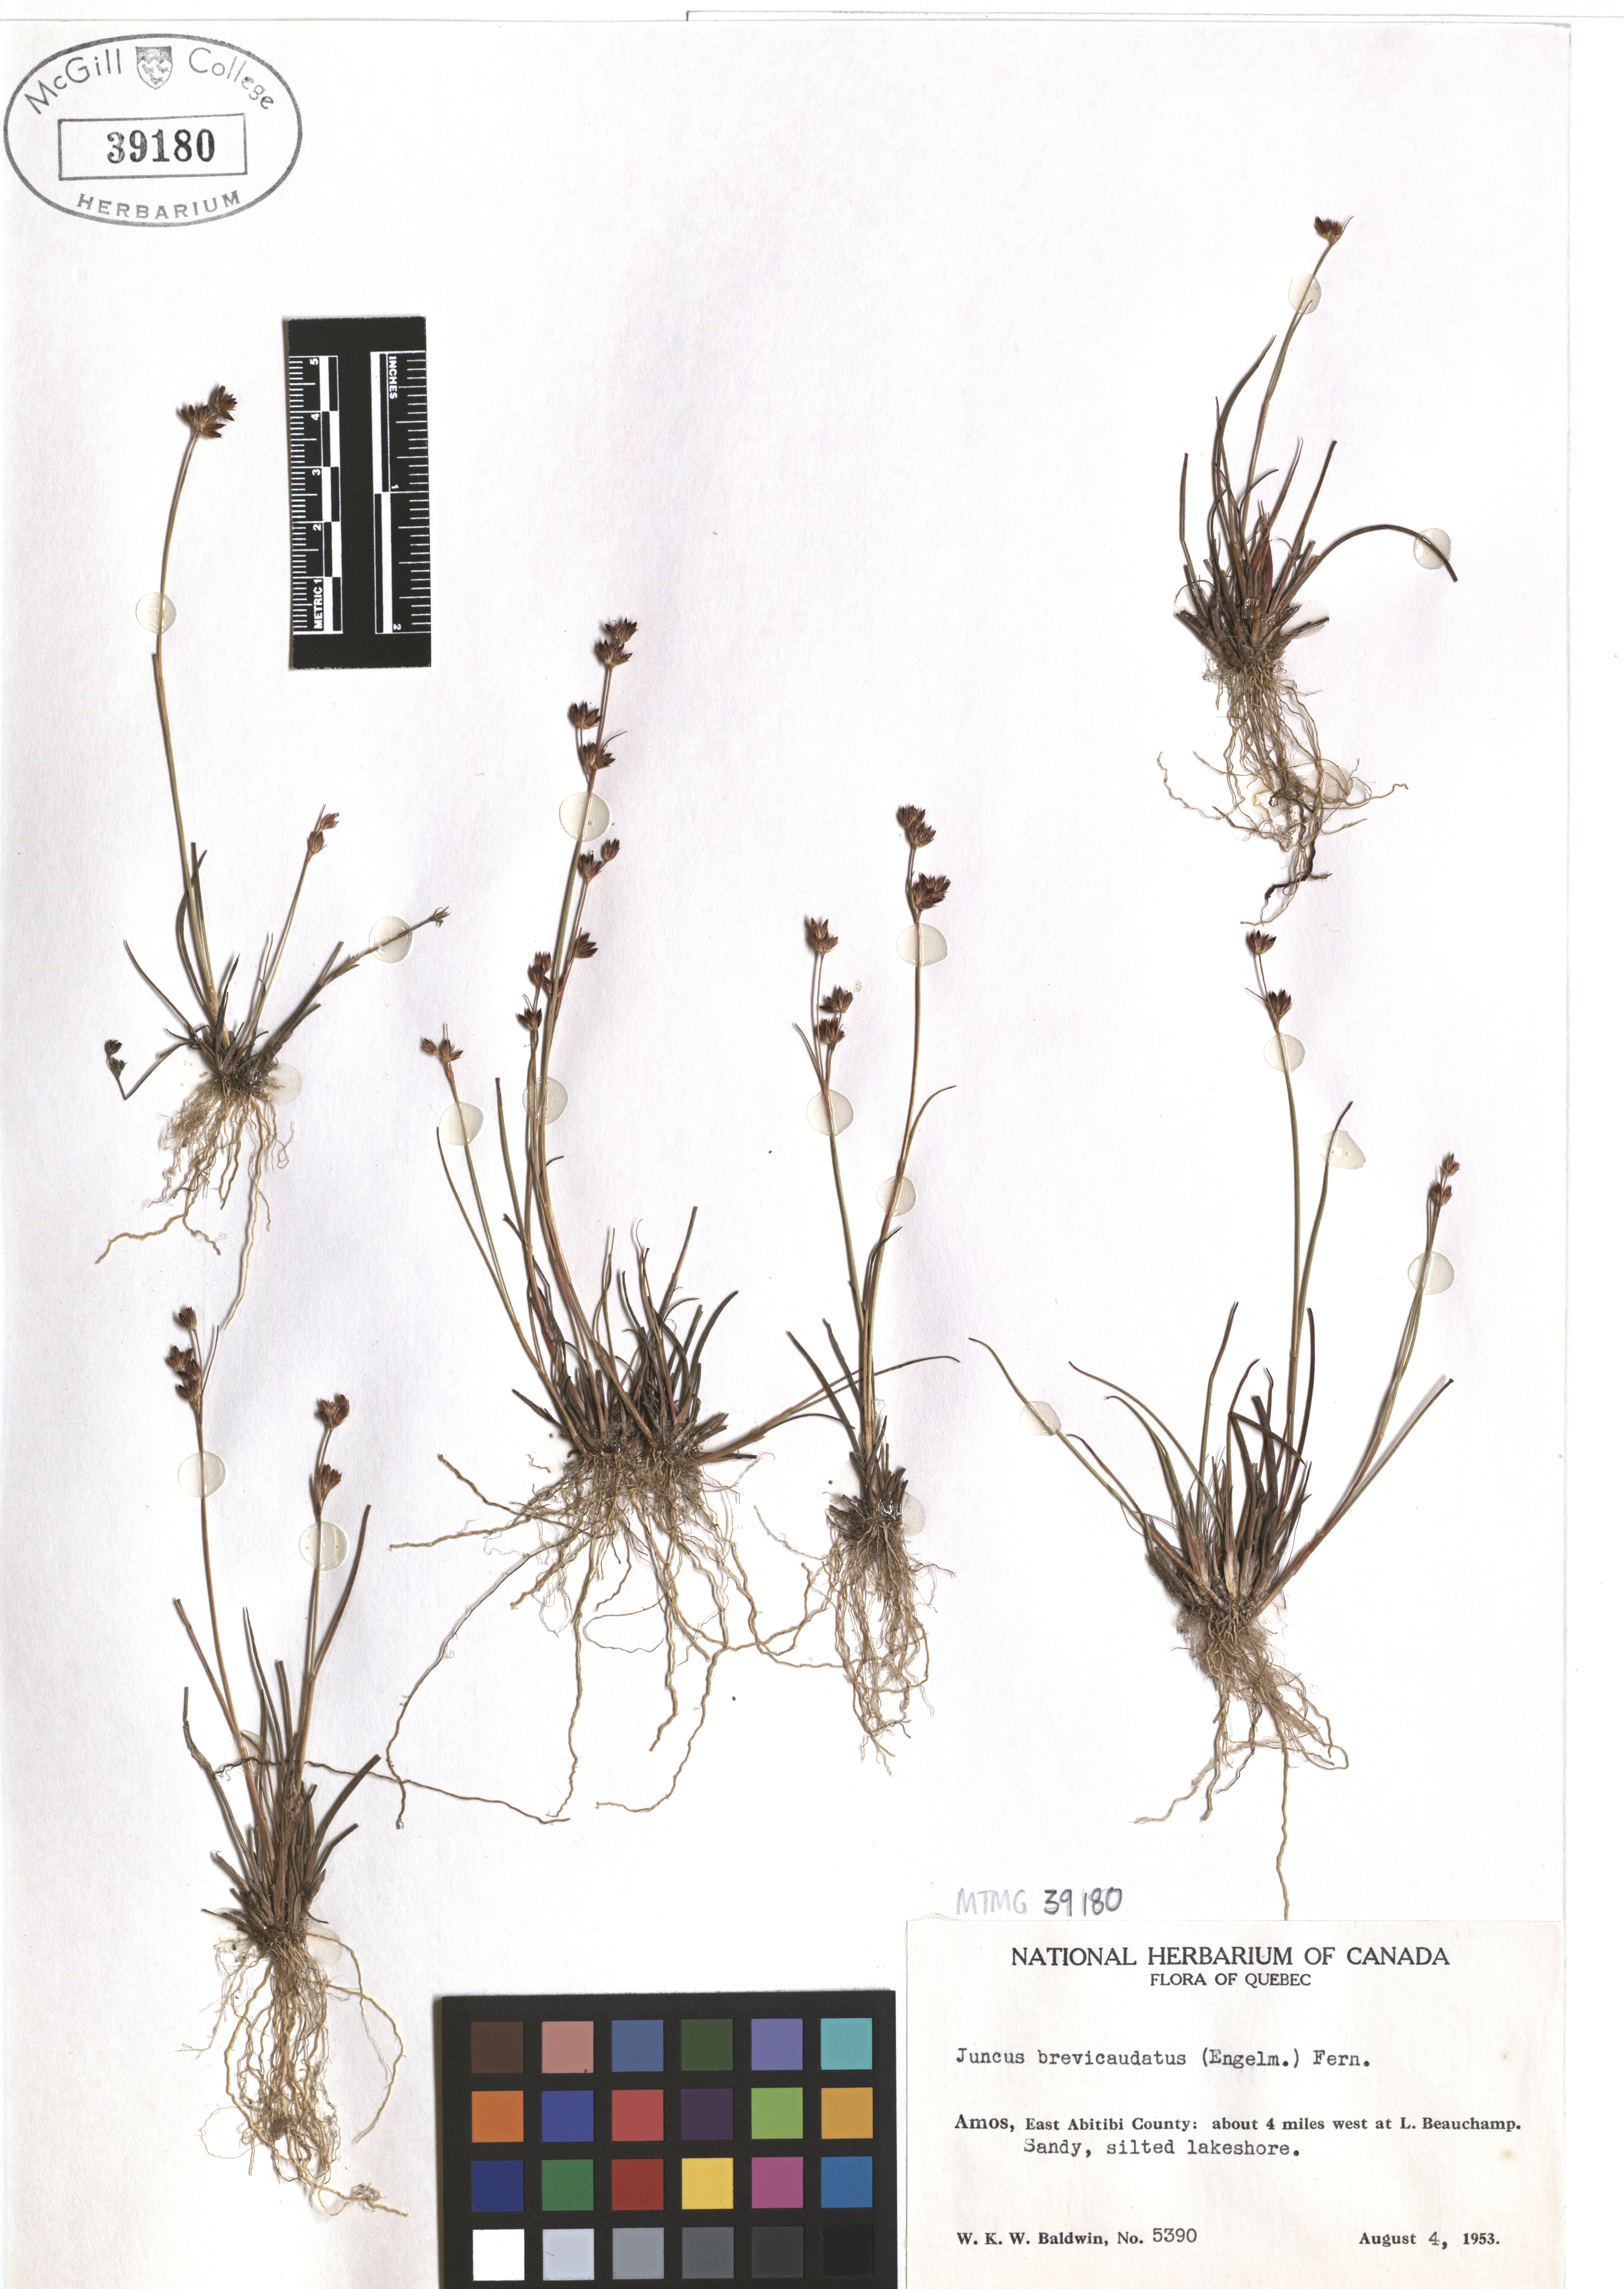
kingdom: Plantae
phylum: Tracheophyta
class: Liliopsida
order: Poales
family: Juncaceae
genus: Juncus
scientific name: Juncus brevicaudatus
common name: Narrow-panicle rush
